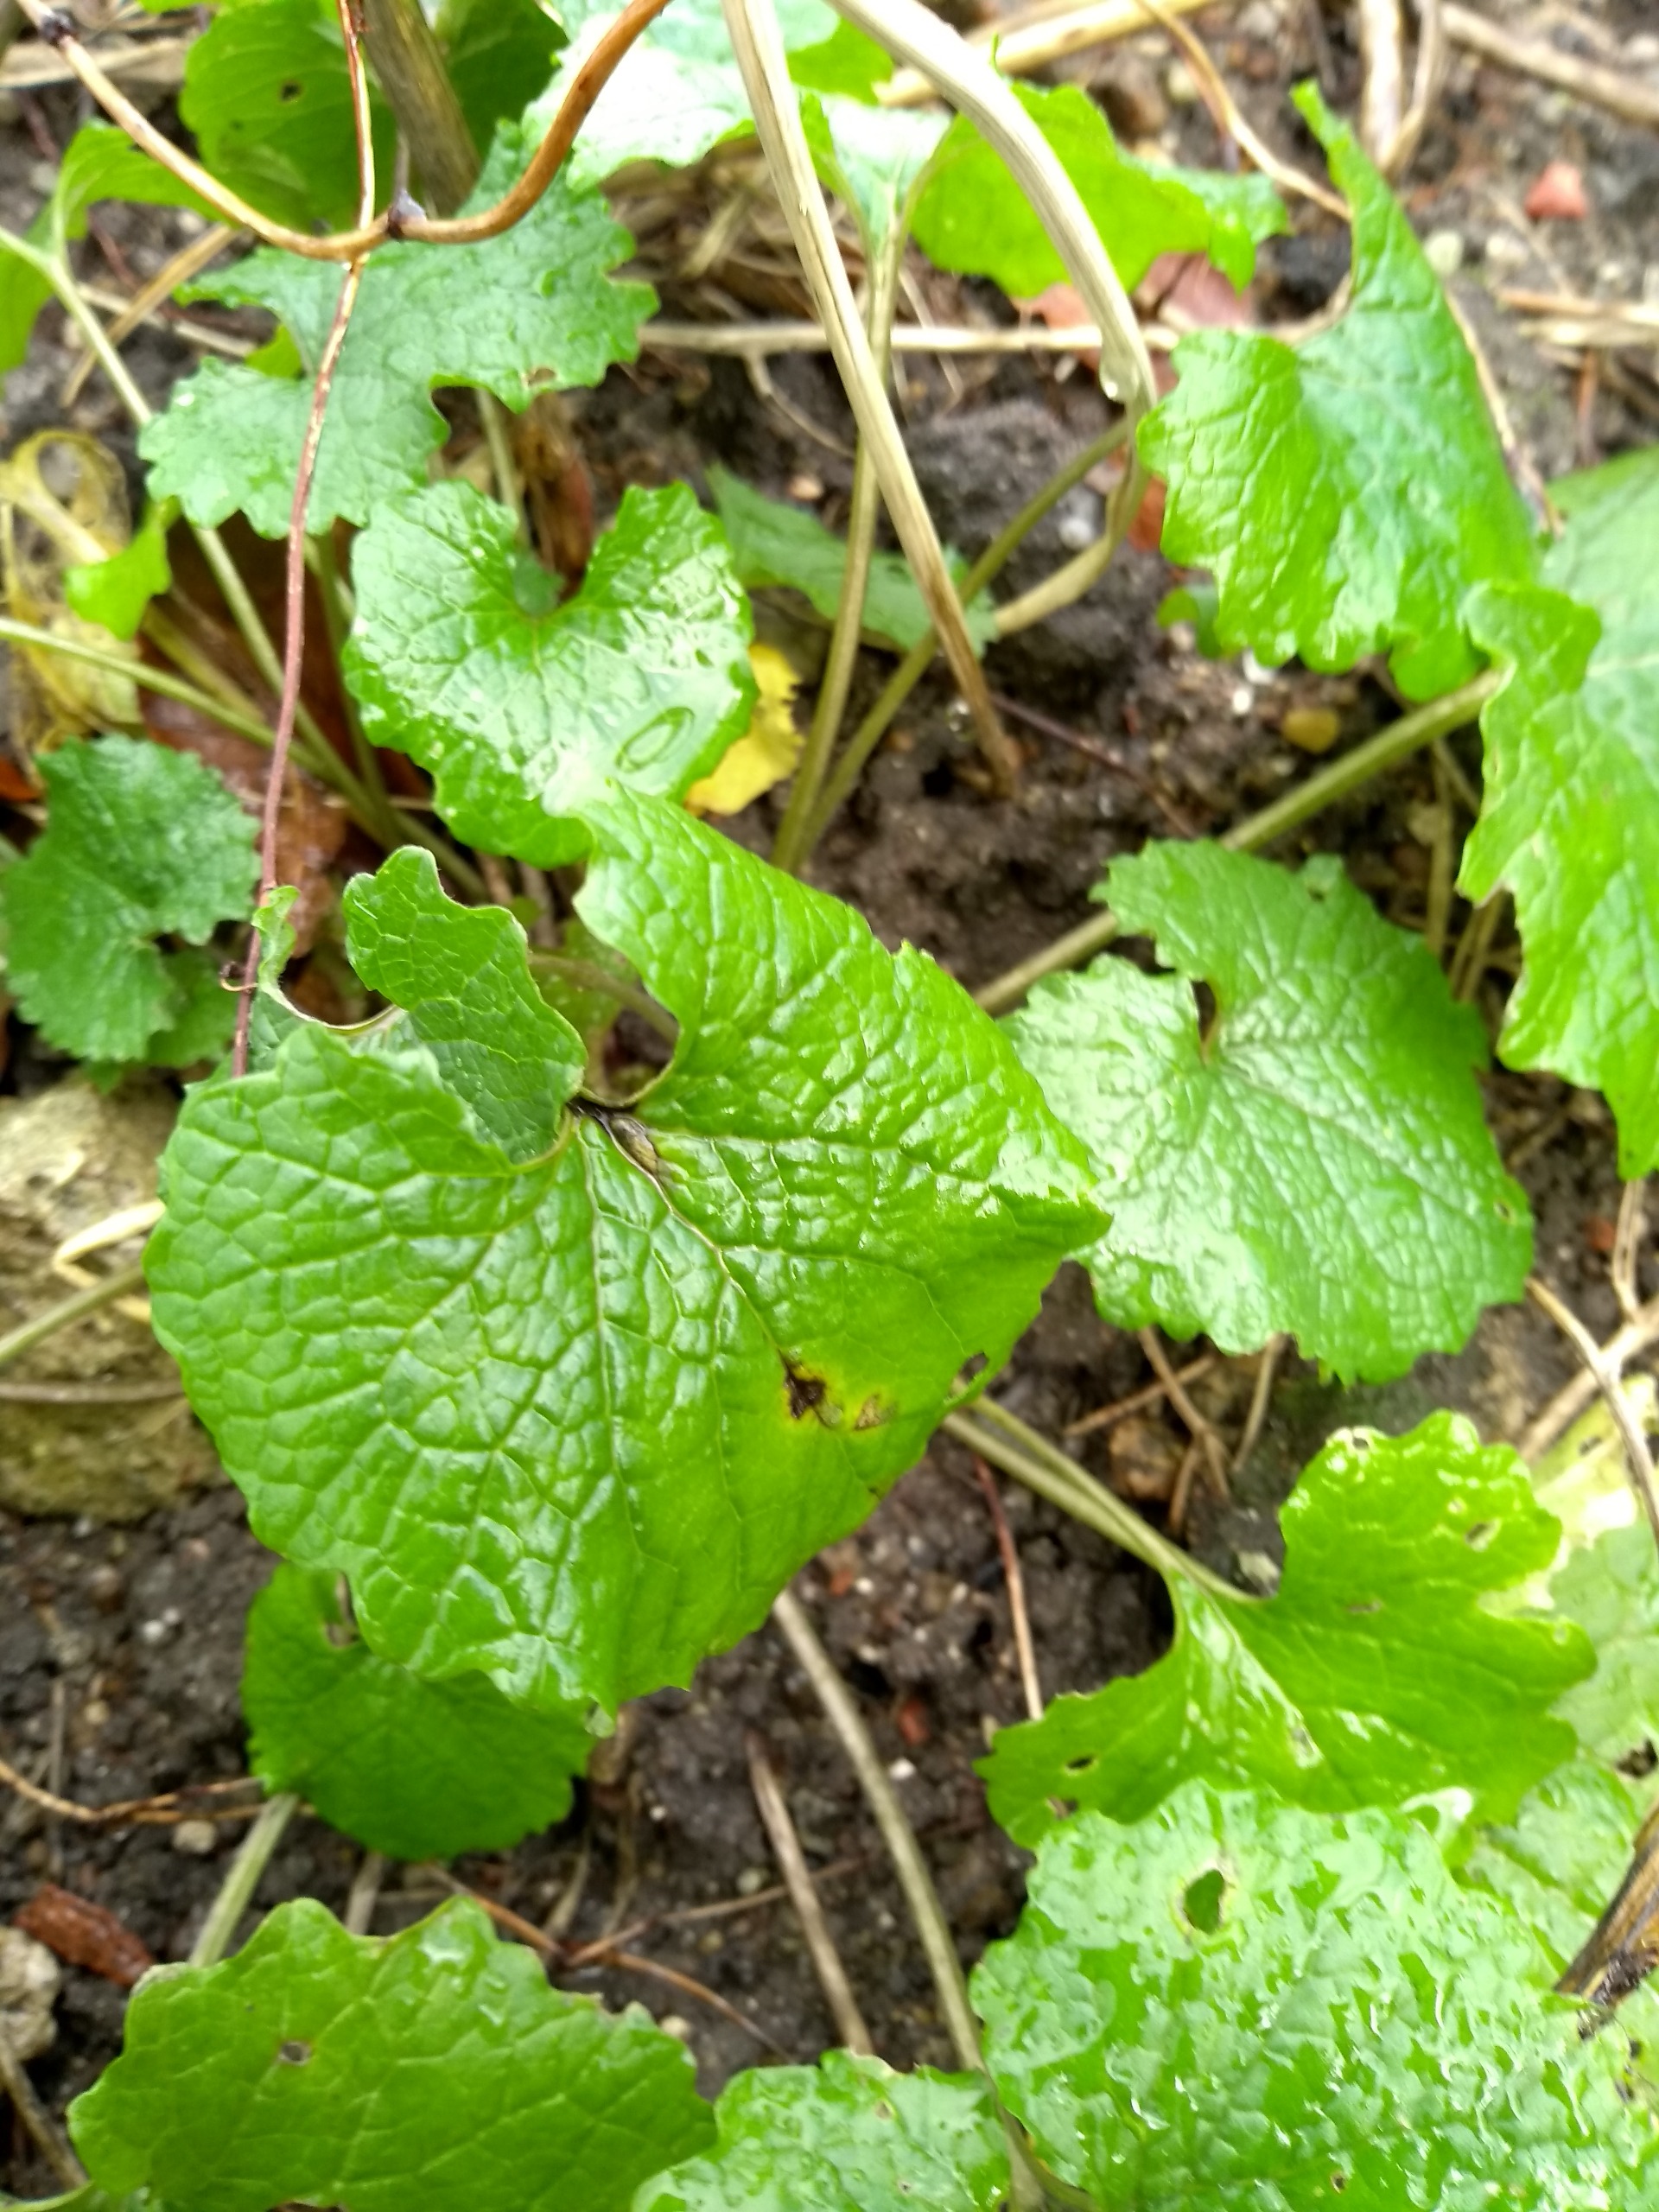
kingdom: Plantae
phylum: Tracheophyta
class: Magnoliopsida
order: Brassicales
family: Brassicaceae
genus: Alliaria
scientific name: Alliaria petiolata
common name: Løgkarse
